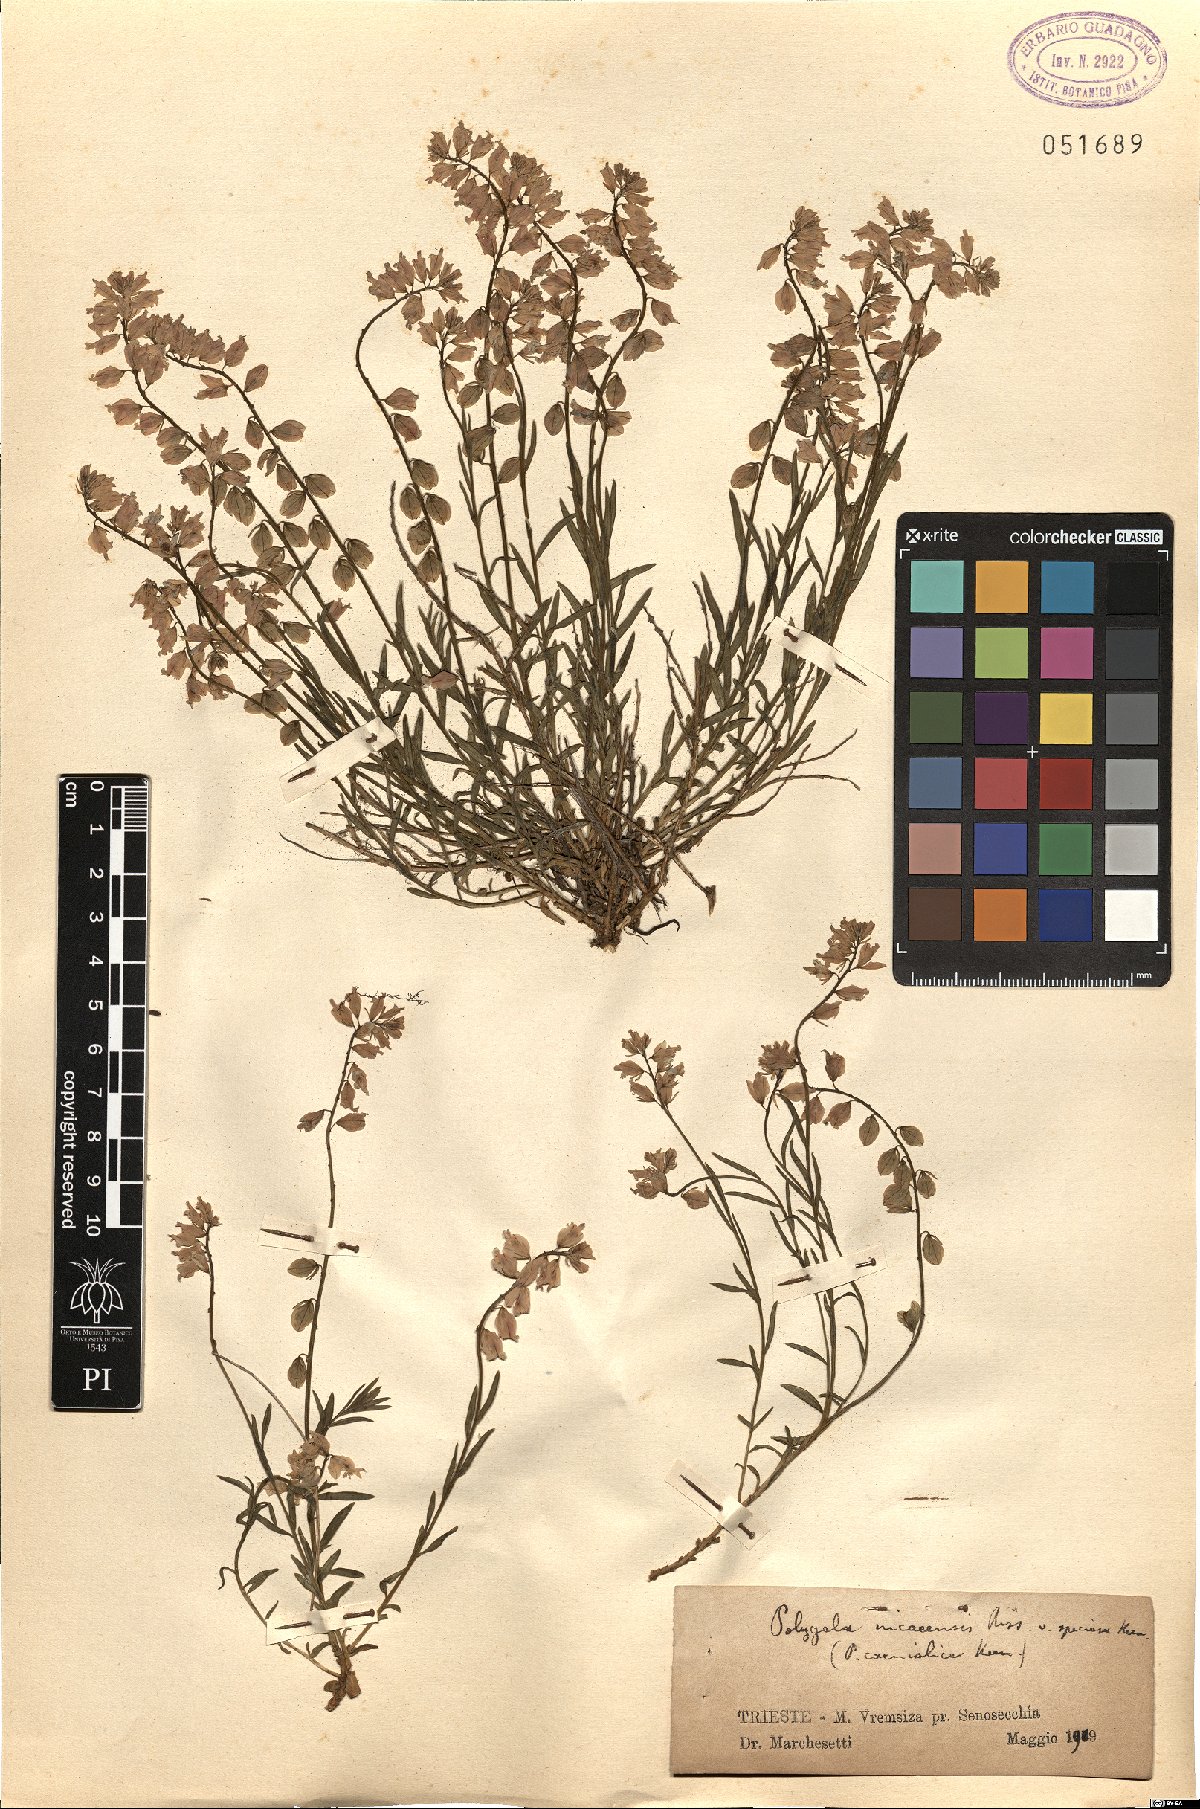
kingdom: Plantae
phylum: Tracheophyta
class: Magnoliopsida
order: Fabales
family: Polygalaceae
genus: Polygala
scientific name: Polygala forojulensis
